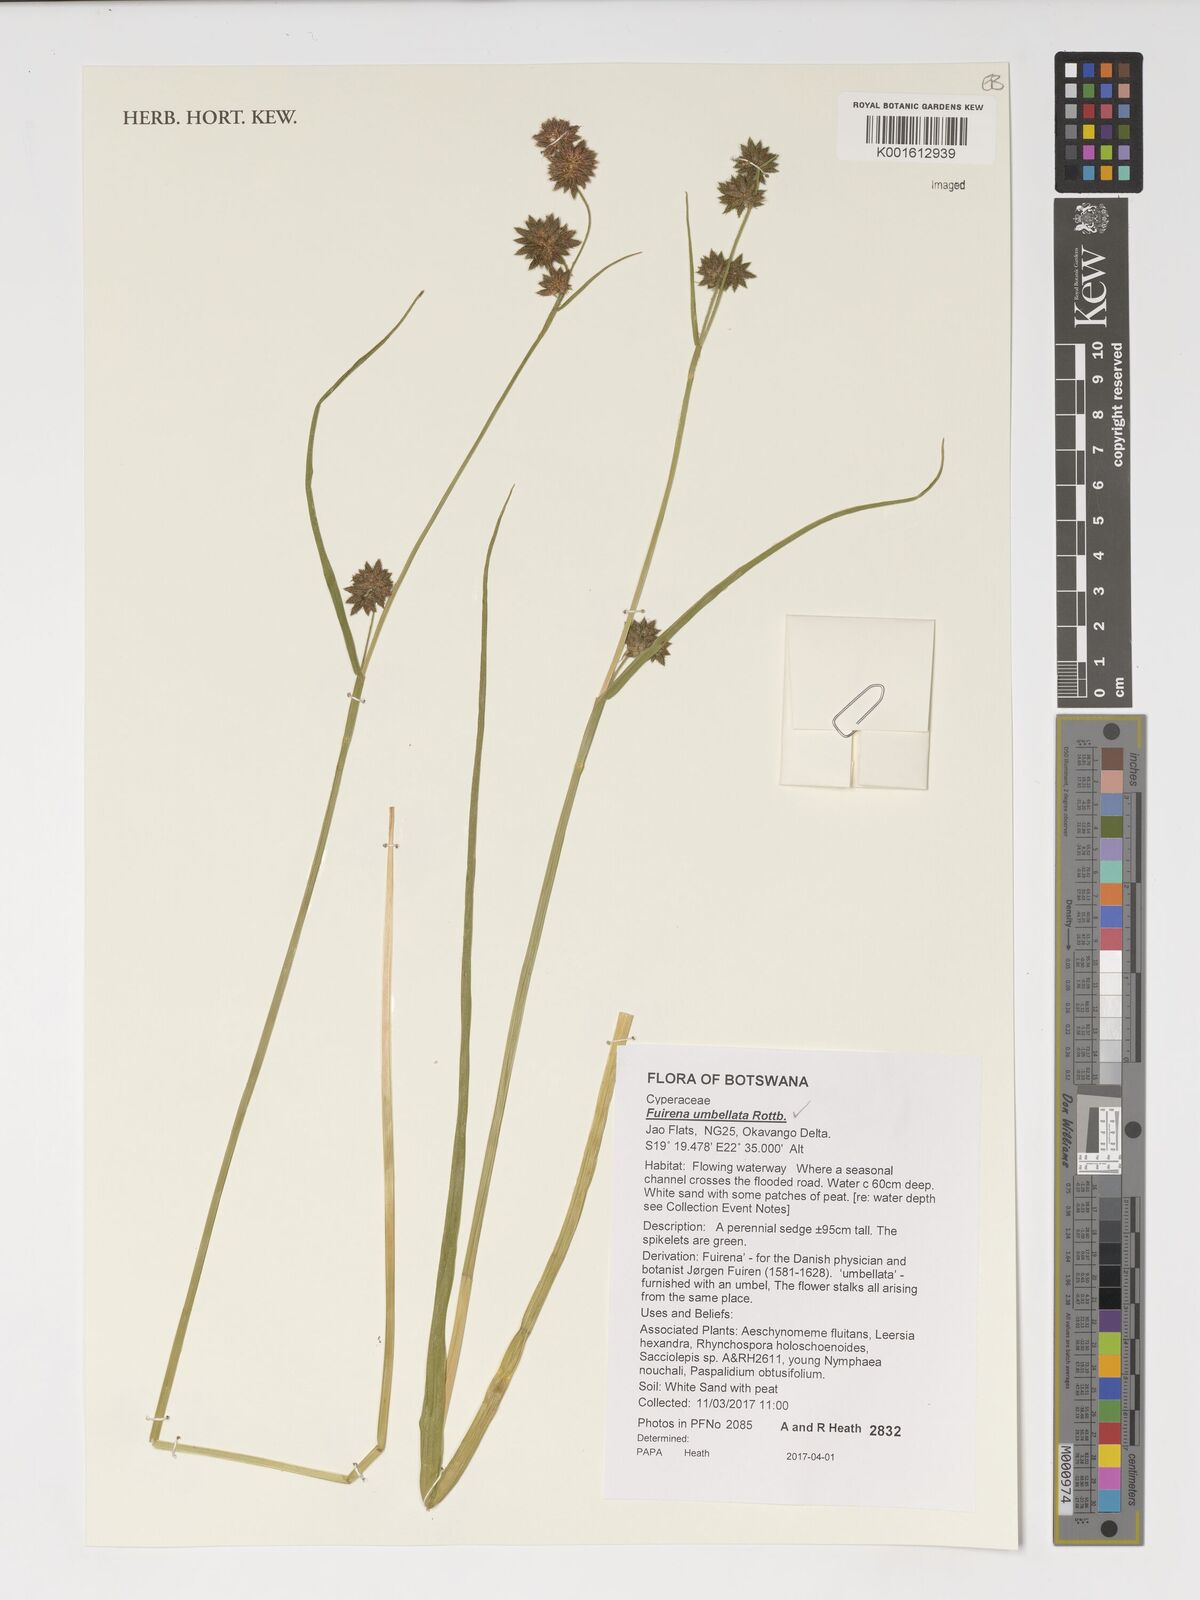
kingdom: Plantae
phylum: Tracheophyta
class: Liliopsida
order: Poales
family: Cyperaceae
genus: Fuirena
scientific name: Fuirena umbellata
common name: Yefen
